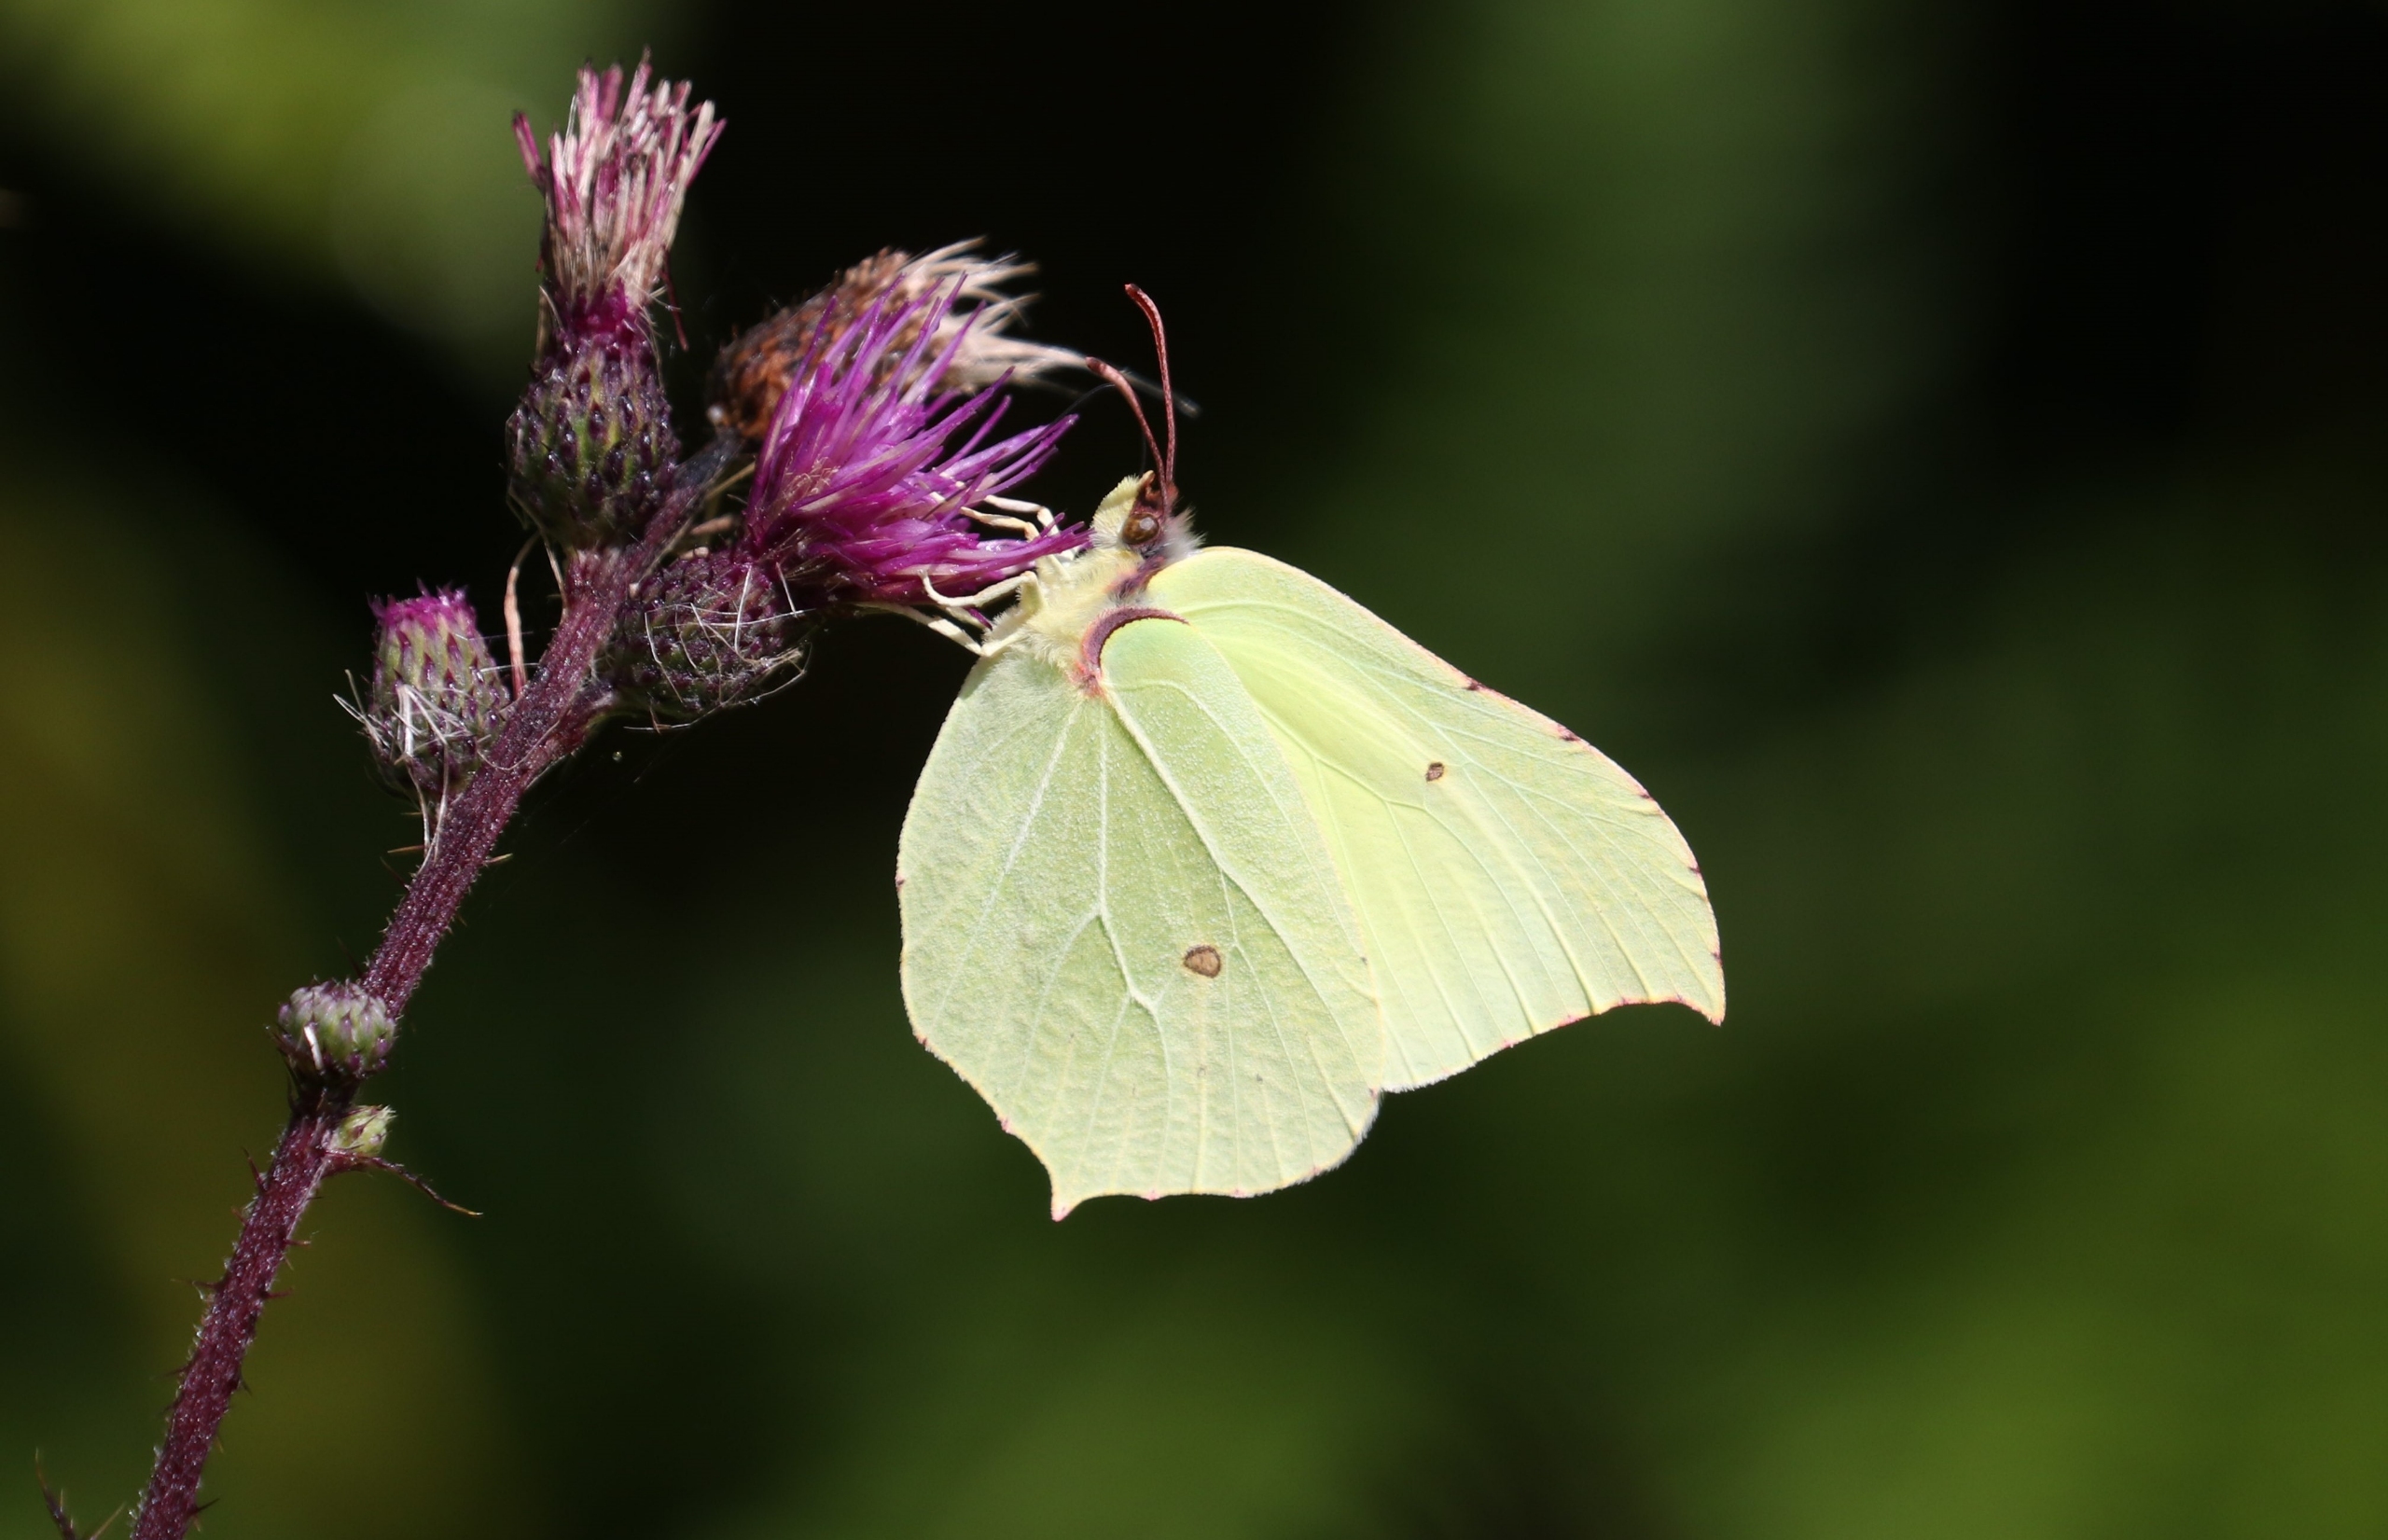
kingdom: Animalia
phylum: Arthropoda
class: Insecta
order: Lepidoptera
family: Pieridae
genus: Gonepteryx
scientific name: Gonepteryx rhamni
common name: Citronsommerfugl
